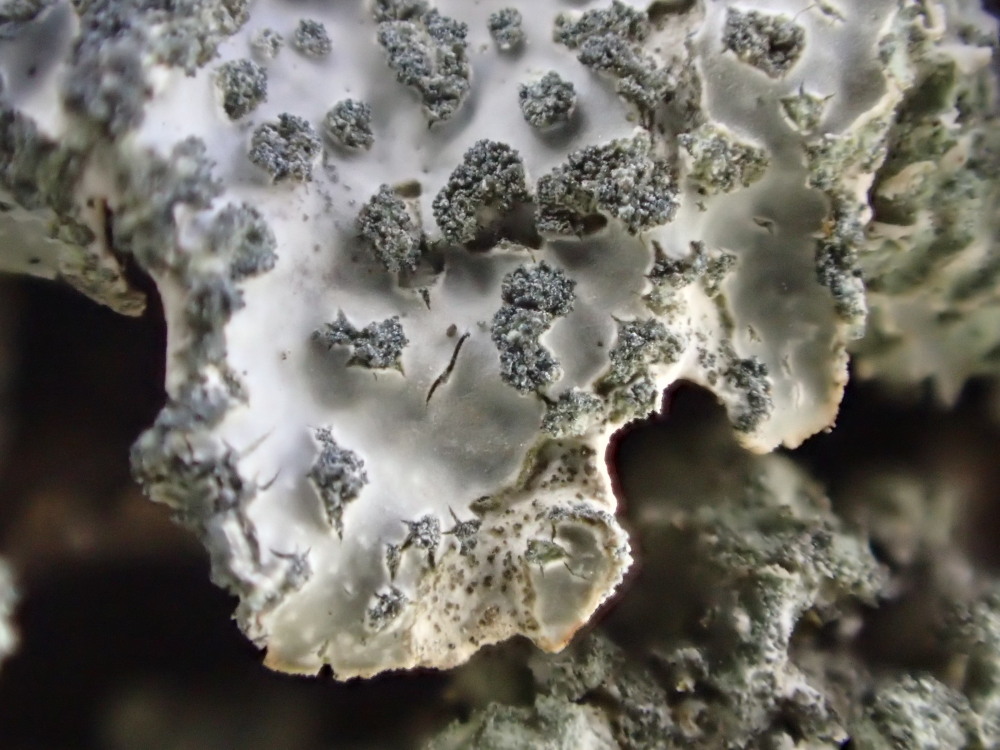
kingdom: Fungi
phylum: Ascomycota
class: Lecanoromycetes
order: Lecanorales
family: Parmeliaceae
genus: Parmelia
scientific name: Parmelia sulcata
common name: rynket skållav
